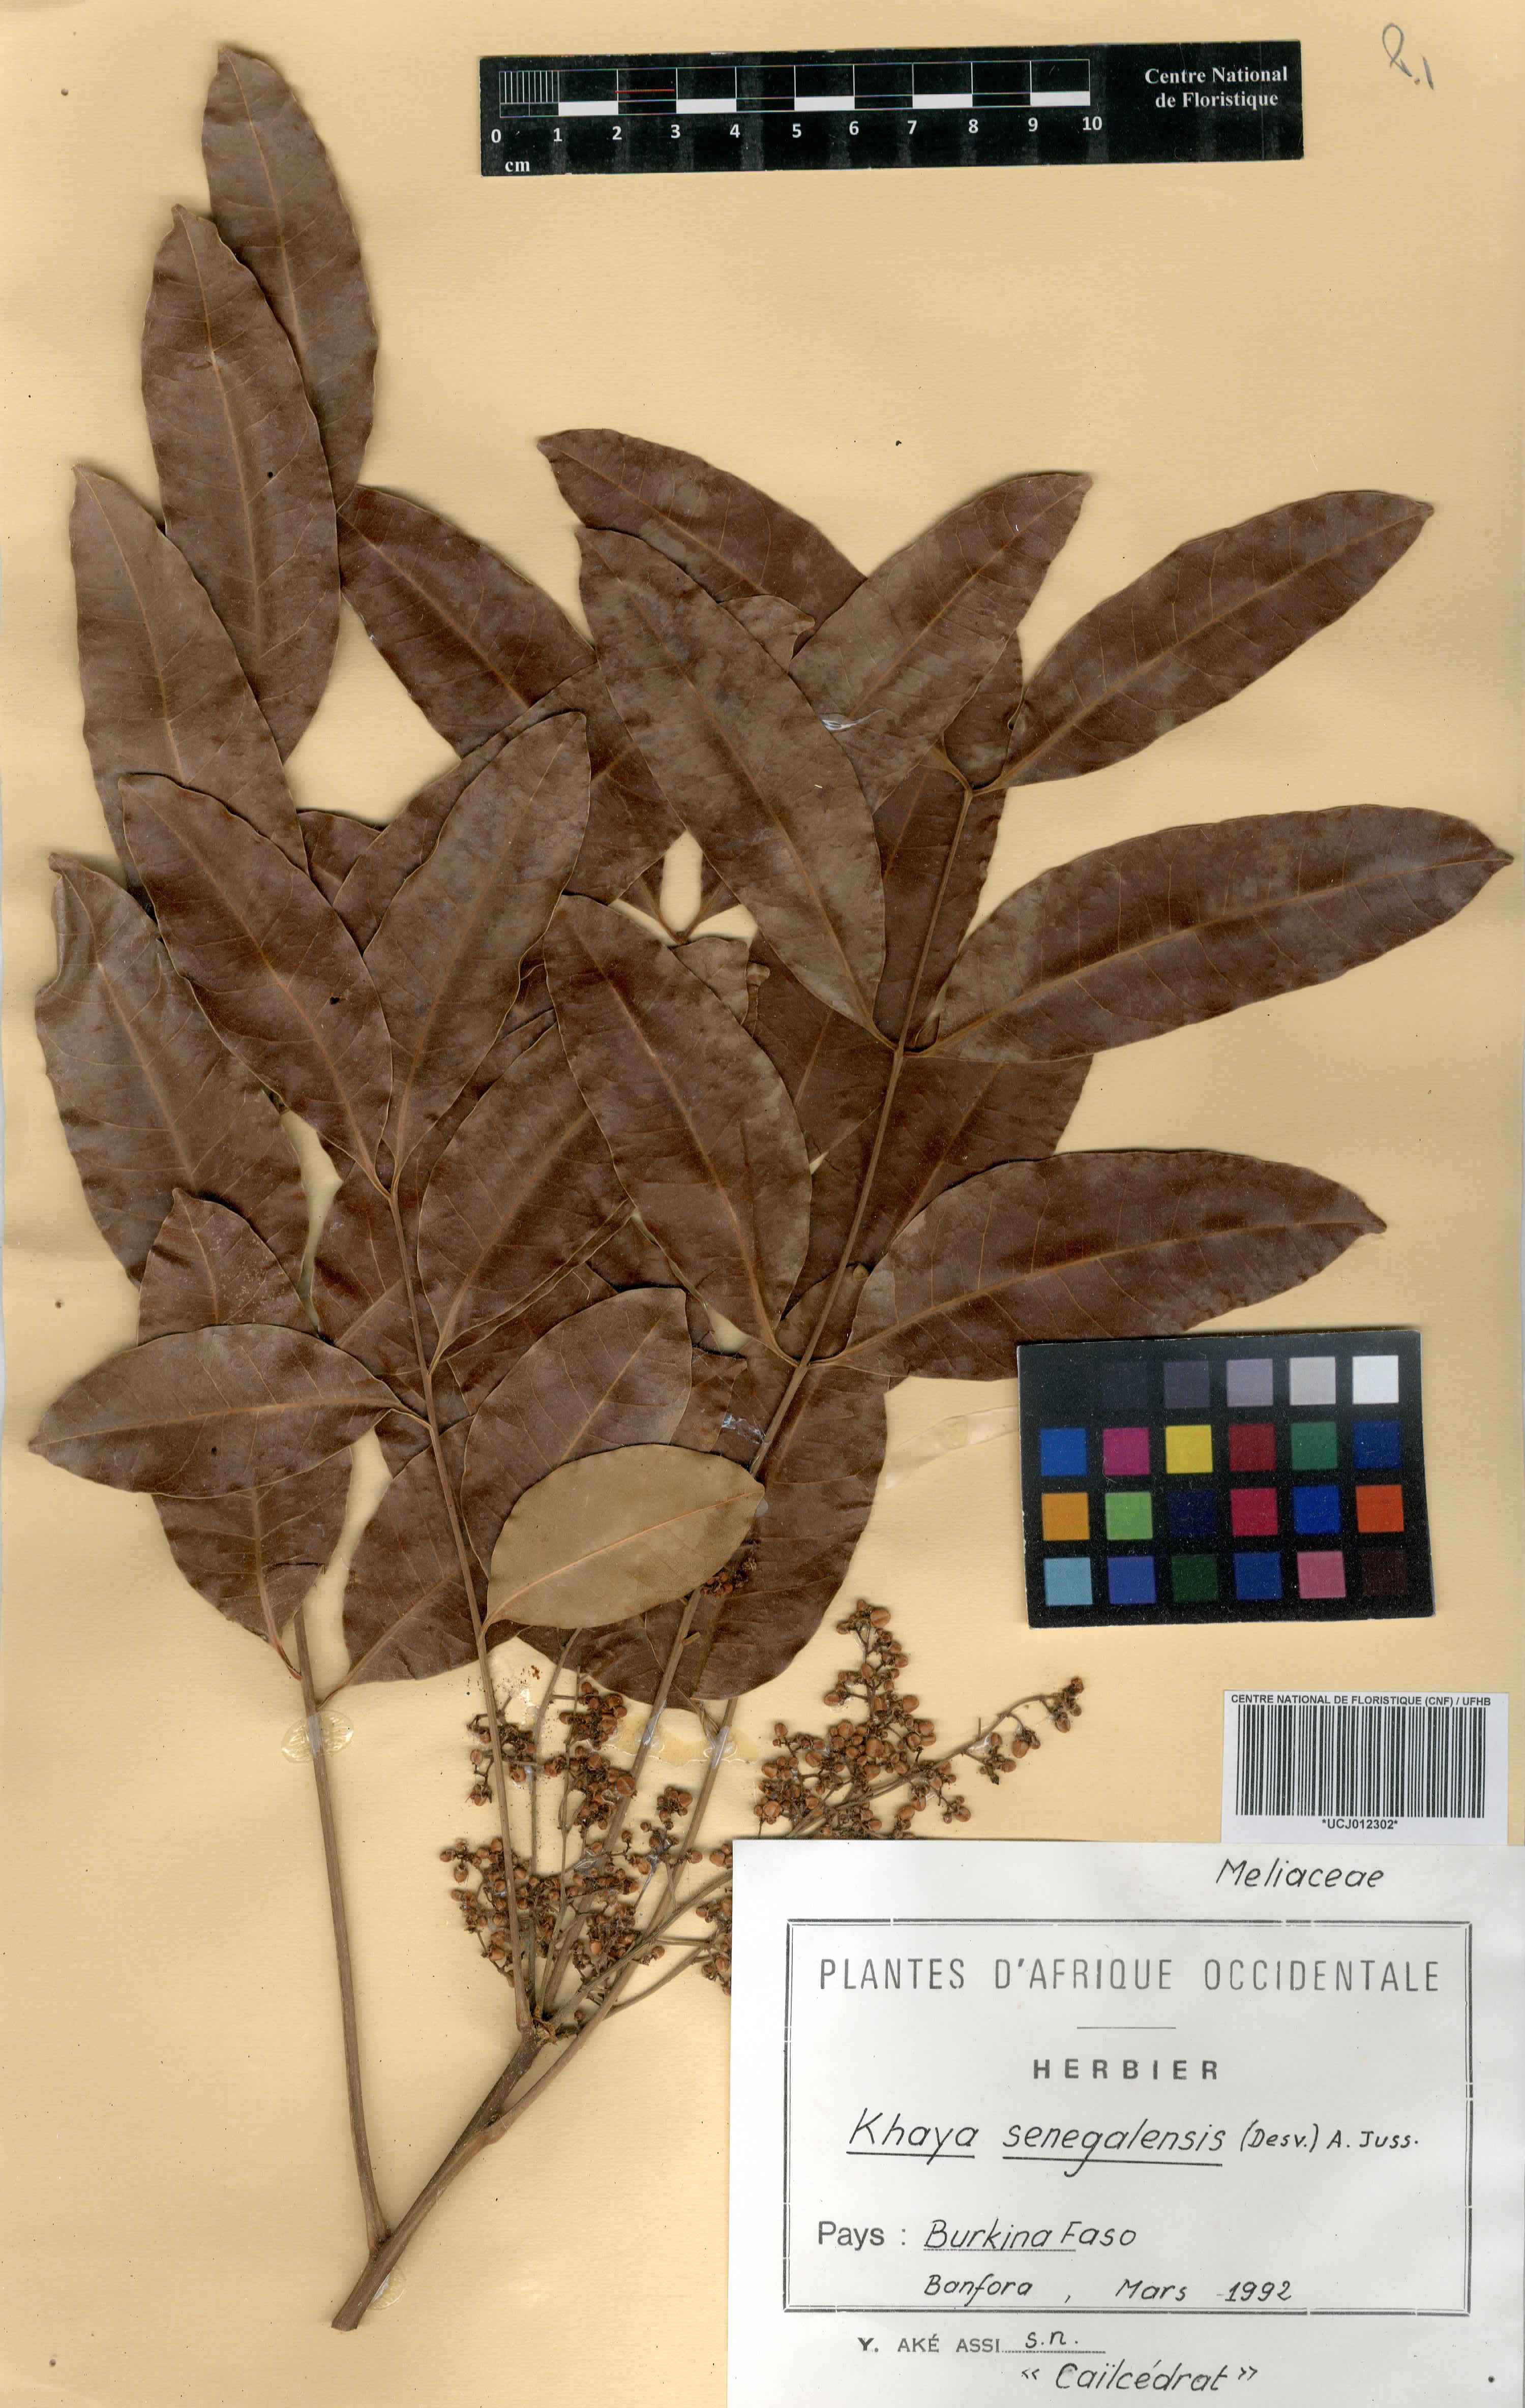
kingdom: Plantae
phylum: Tracheophyta
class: Magnoliopsida
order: Sapindales
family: Meliaceae
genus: Khaya
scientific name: Khaya senegalensis
